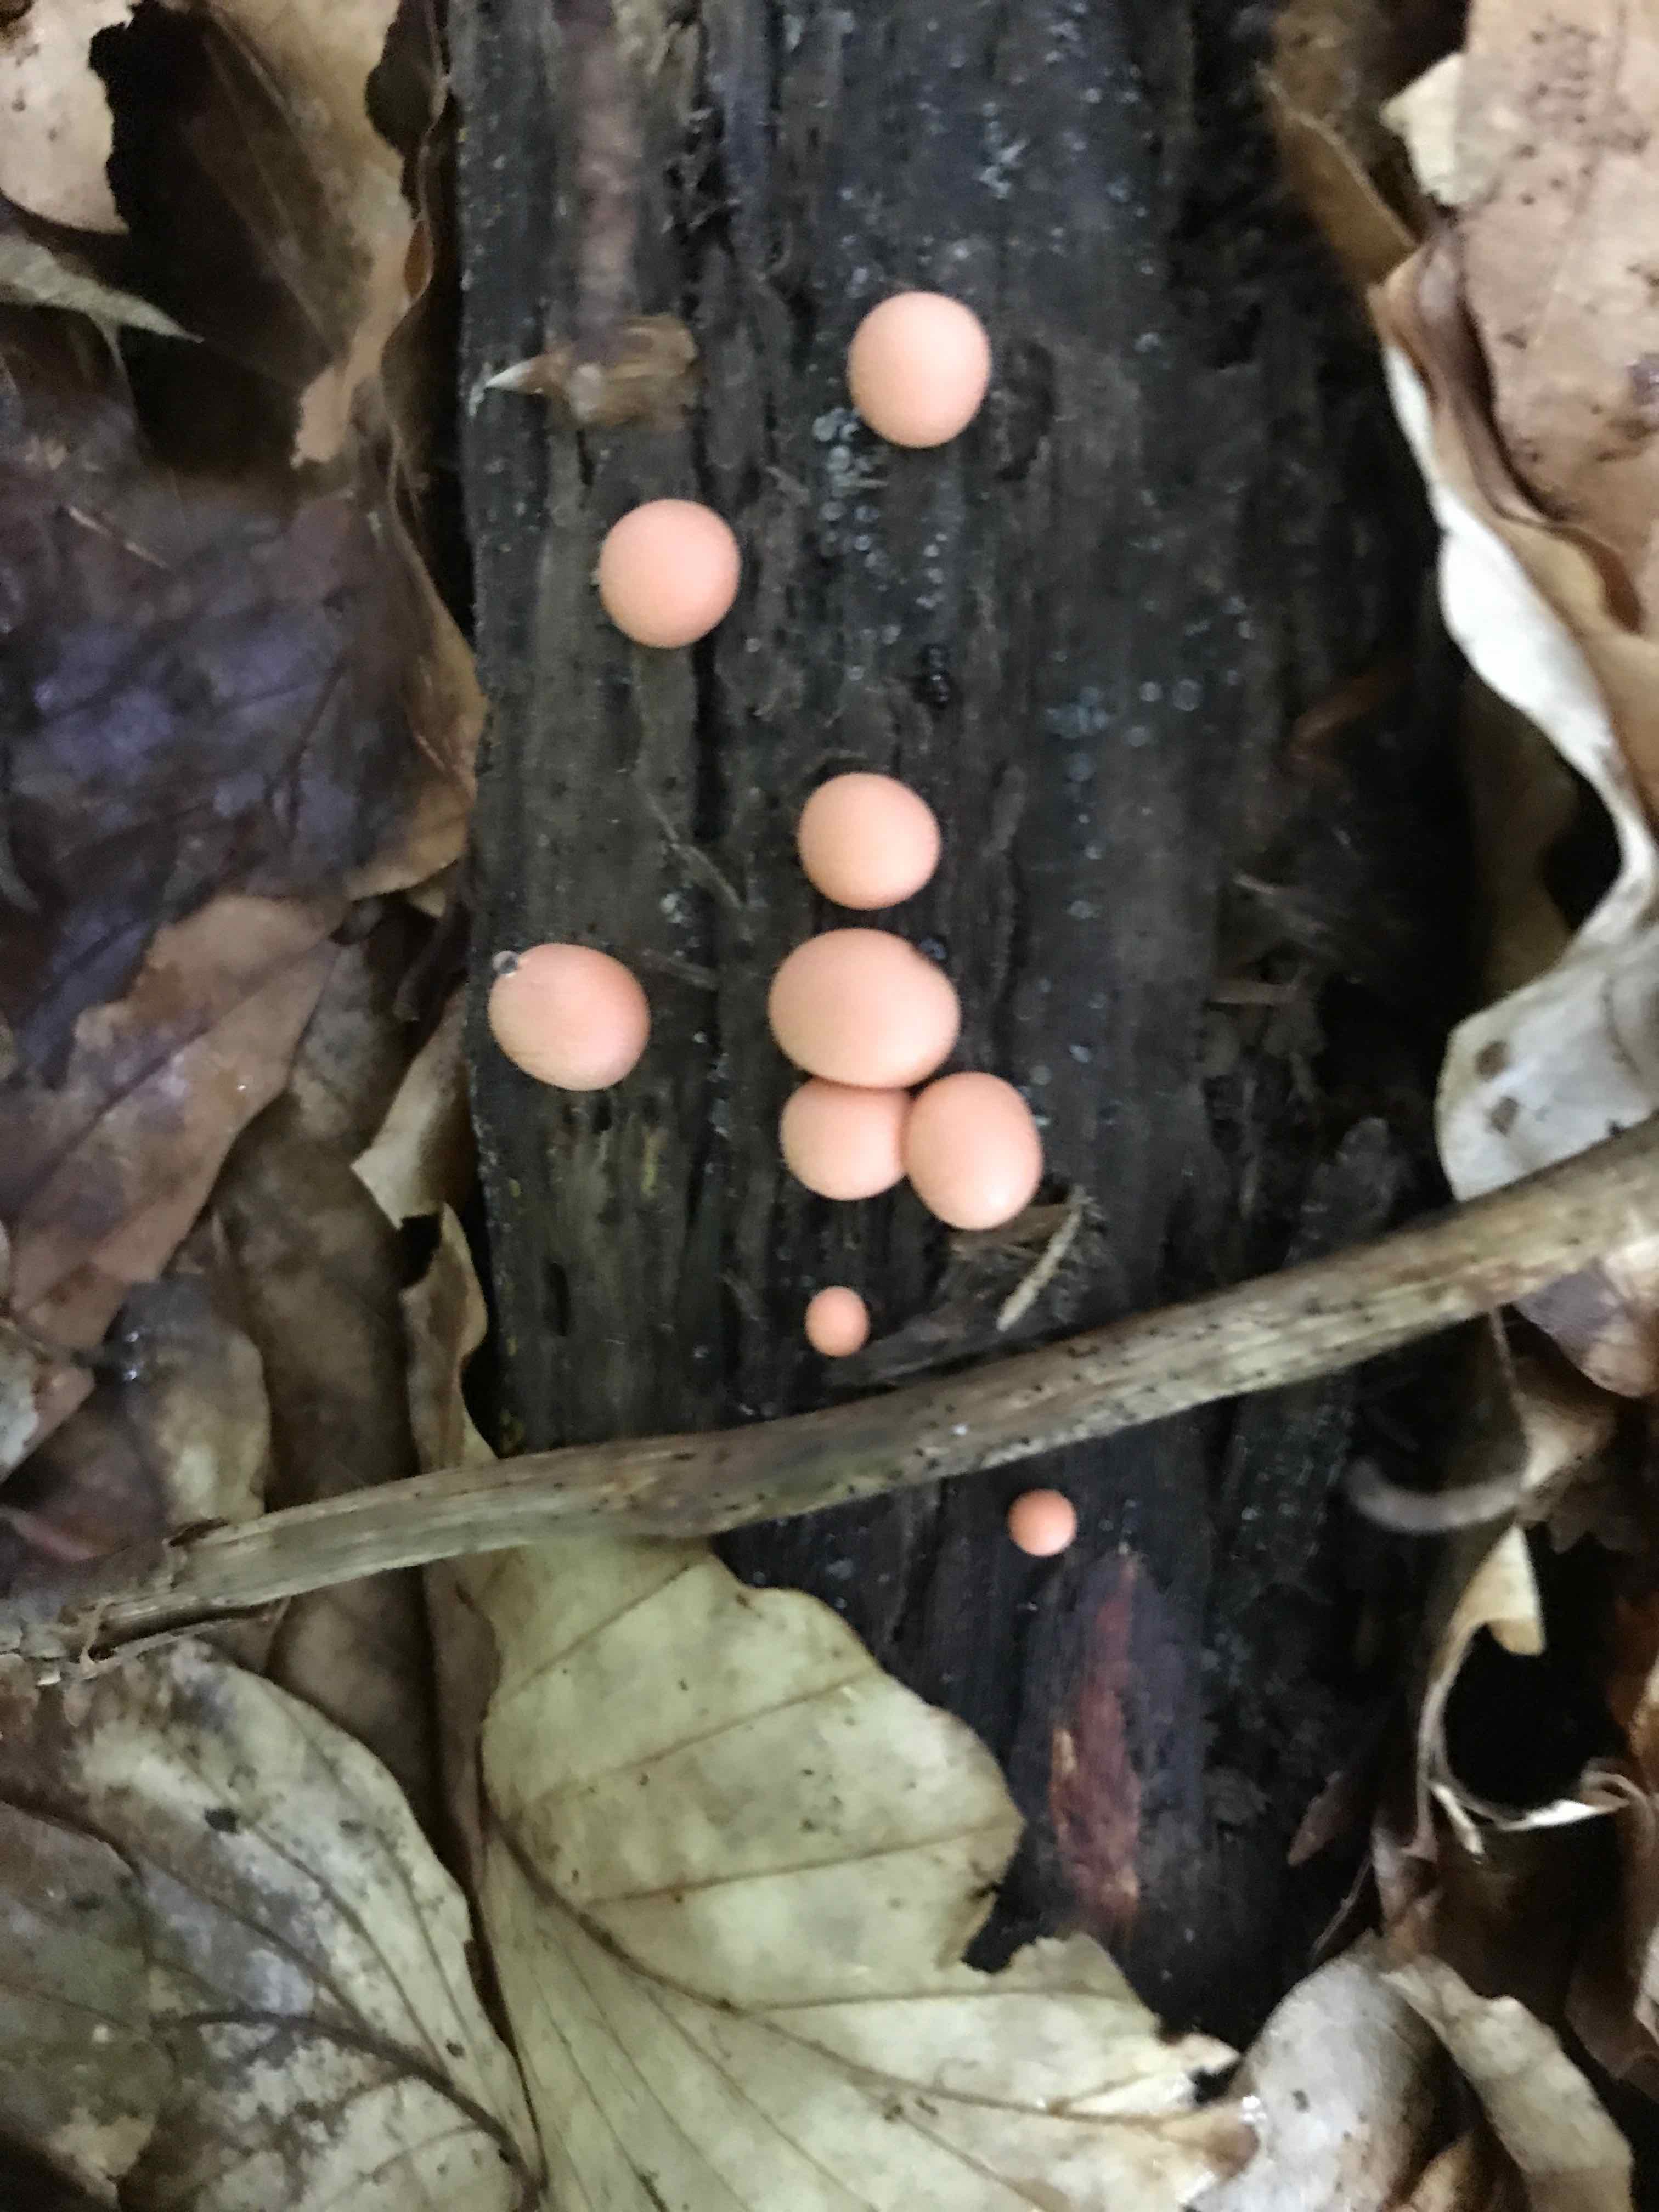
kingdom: Protozoa
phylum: Mycetozoa
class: Myxomycetes
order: Cribrariales
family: Tubiferaceae
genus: Lycogala
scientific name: Lycogala epidendrum
